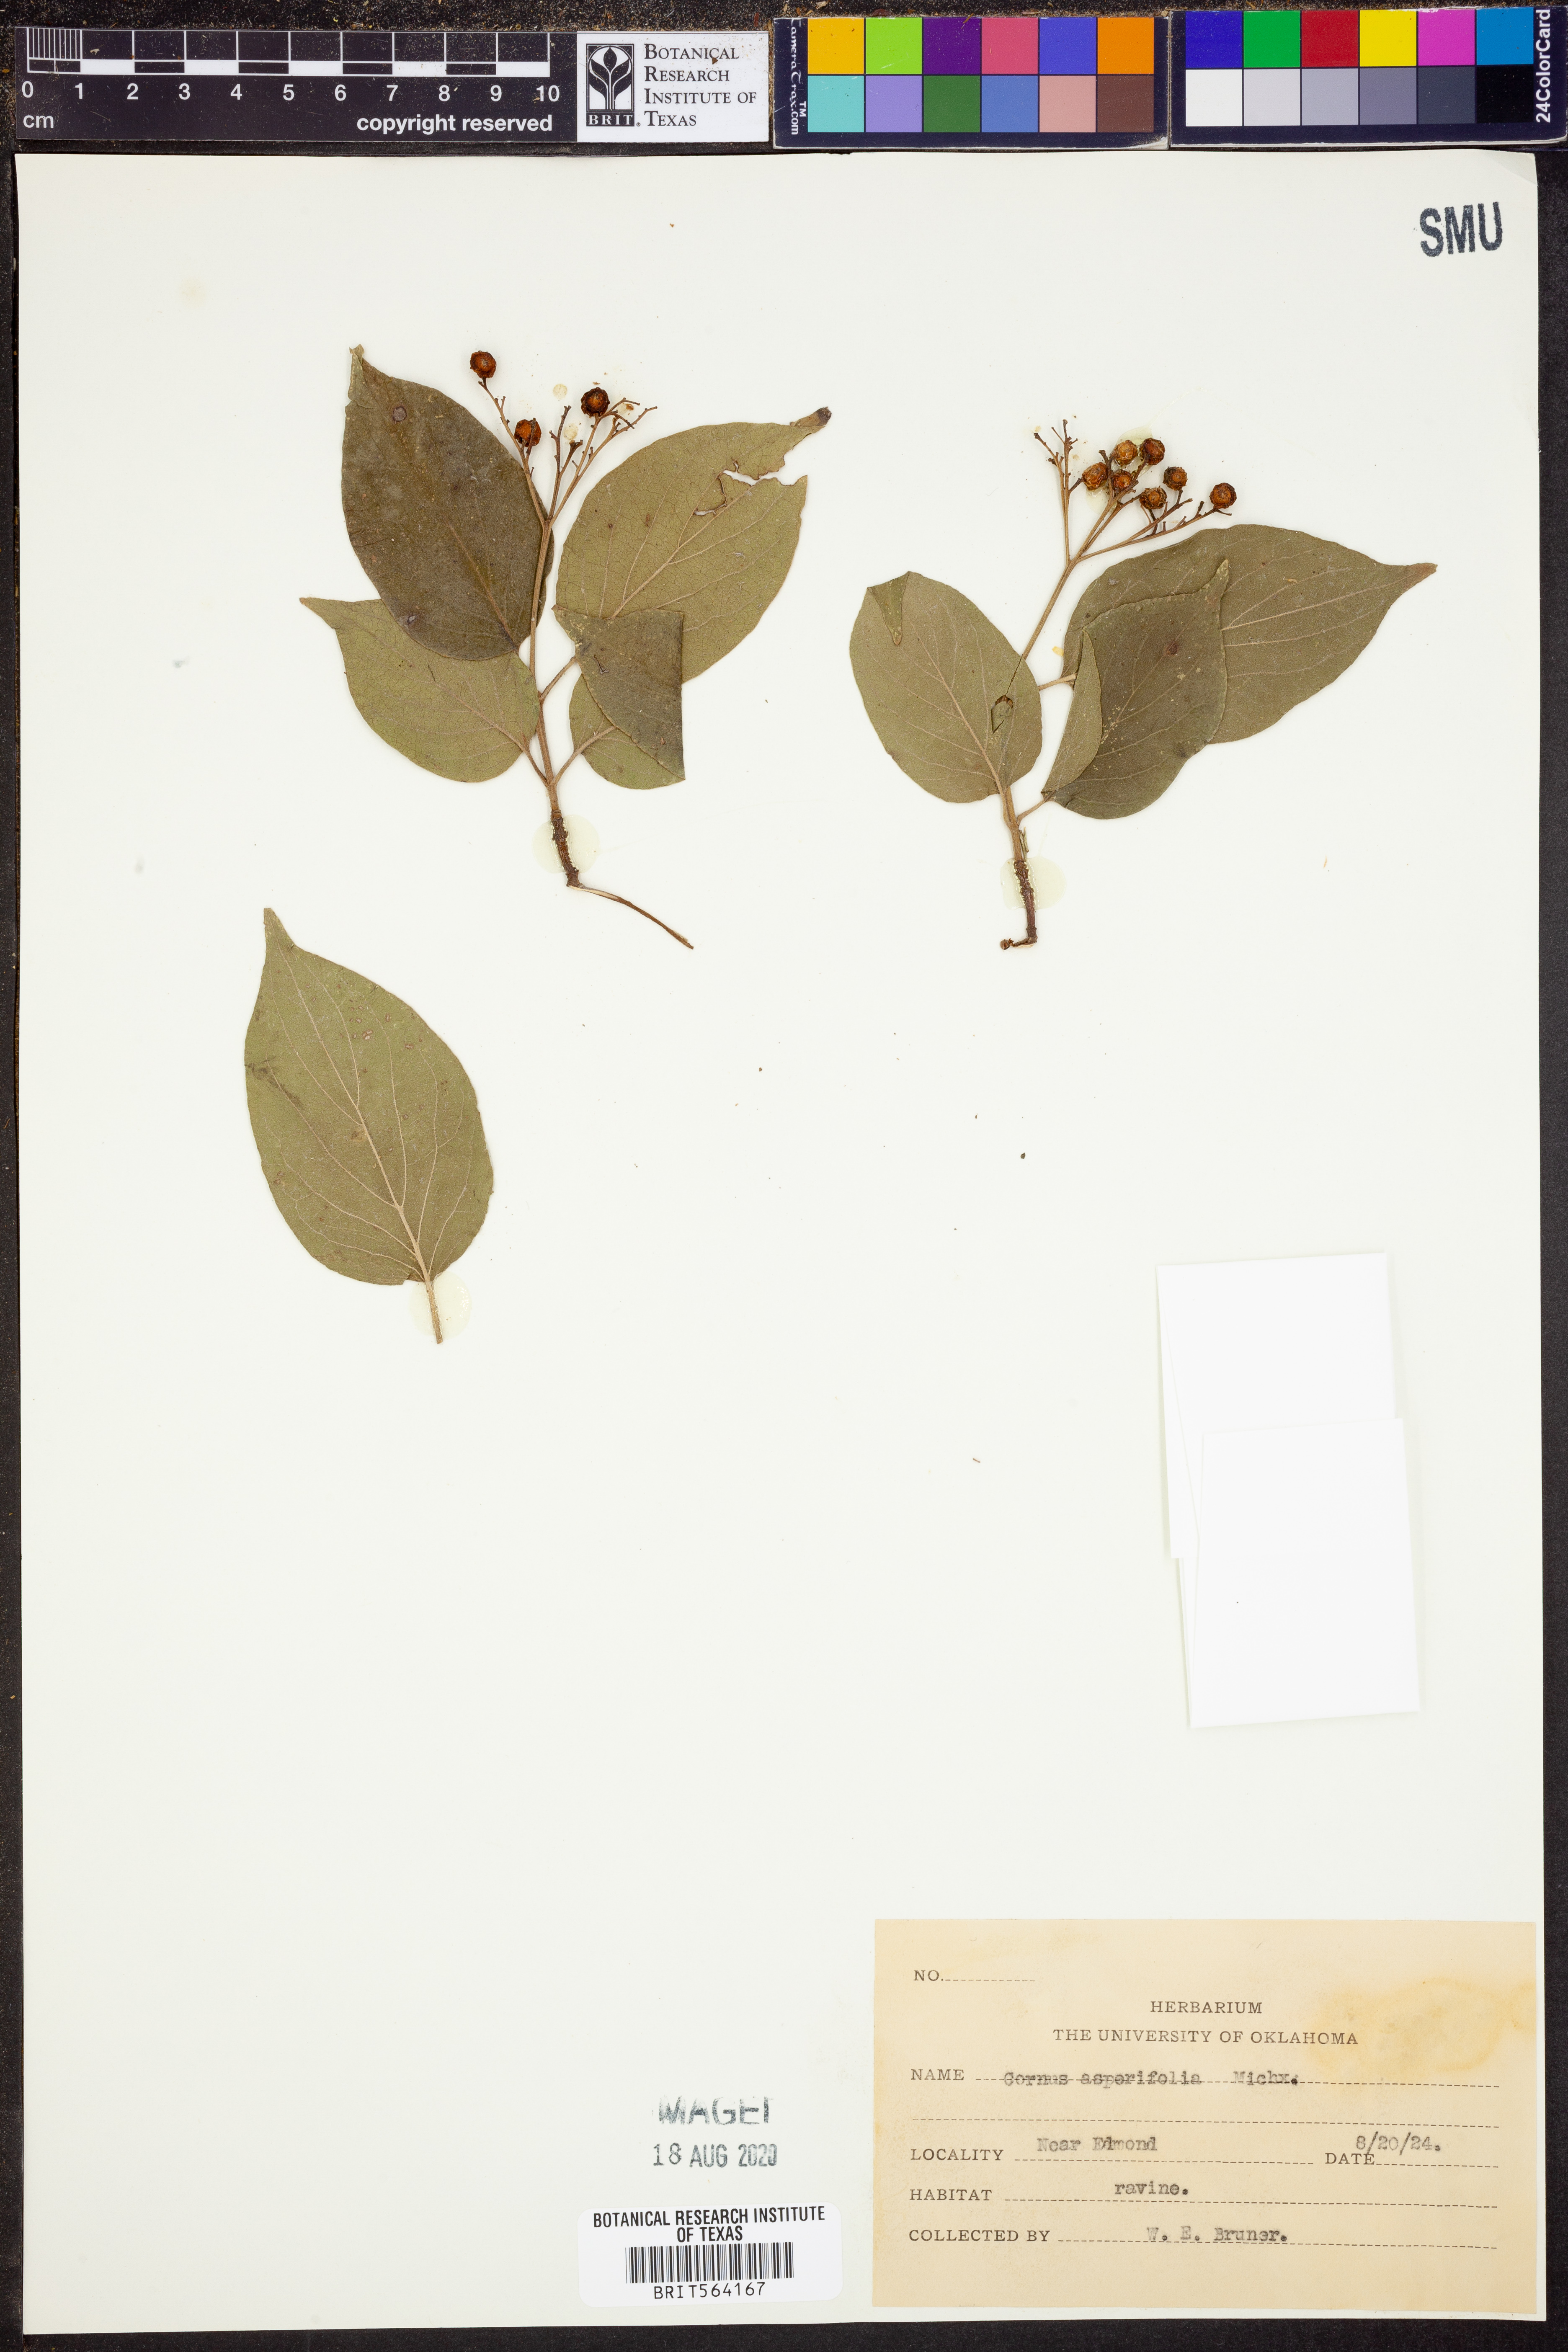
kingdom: Plantae
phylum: Tracheophyta
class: Magnoliopsida
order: Cornales
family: Cornaceae
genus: Cornus
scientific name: Cornus asperifolia
